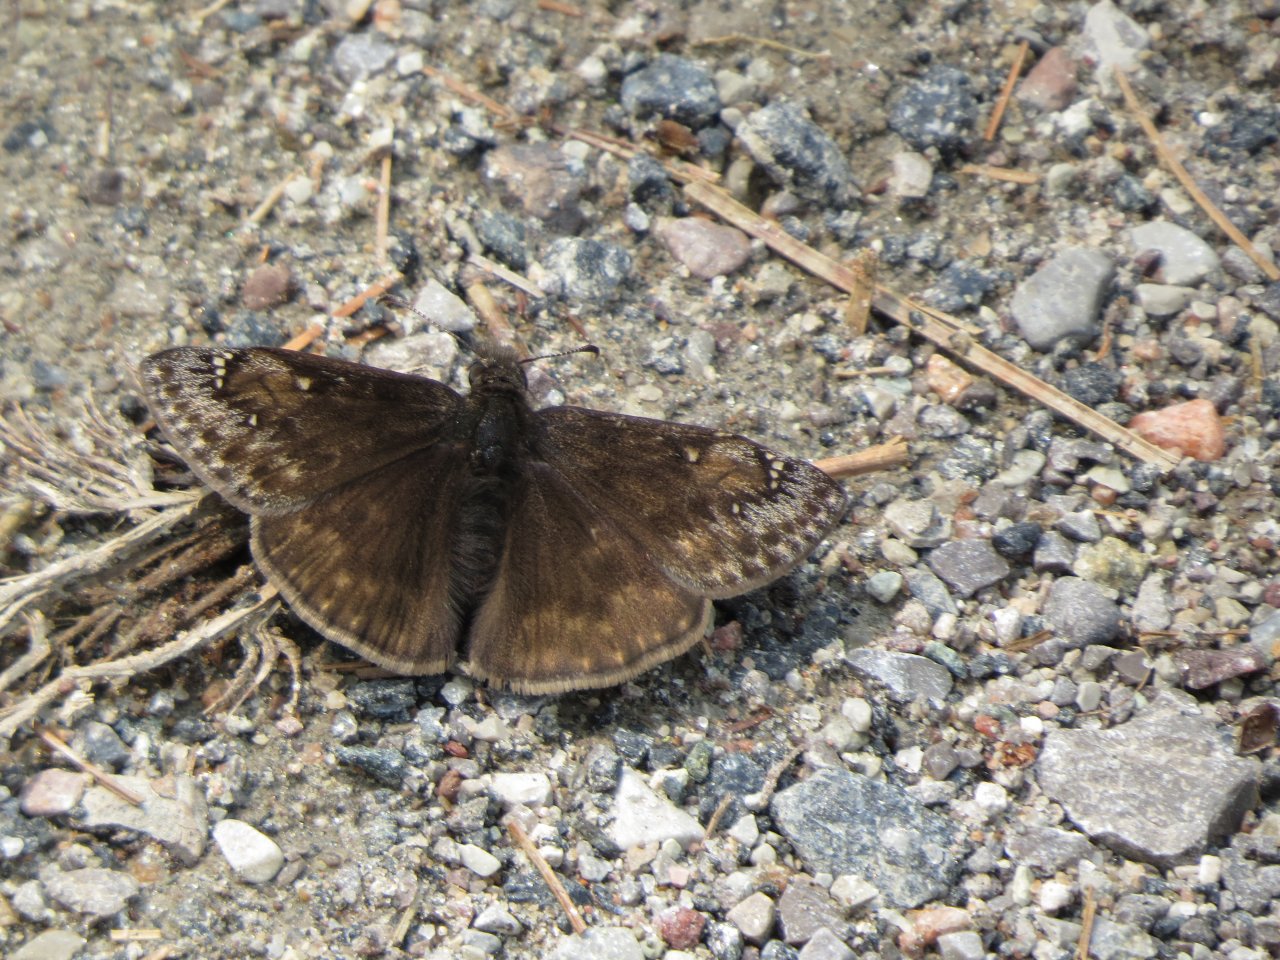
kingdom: Animalia
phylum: Arthropoda
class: Insecta
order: Lepidoptera
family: Hesperiidae
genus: Gesta
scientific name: Gesta
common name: Juvenal's Duskywing
